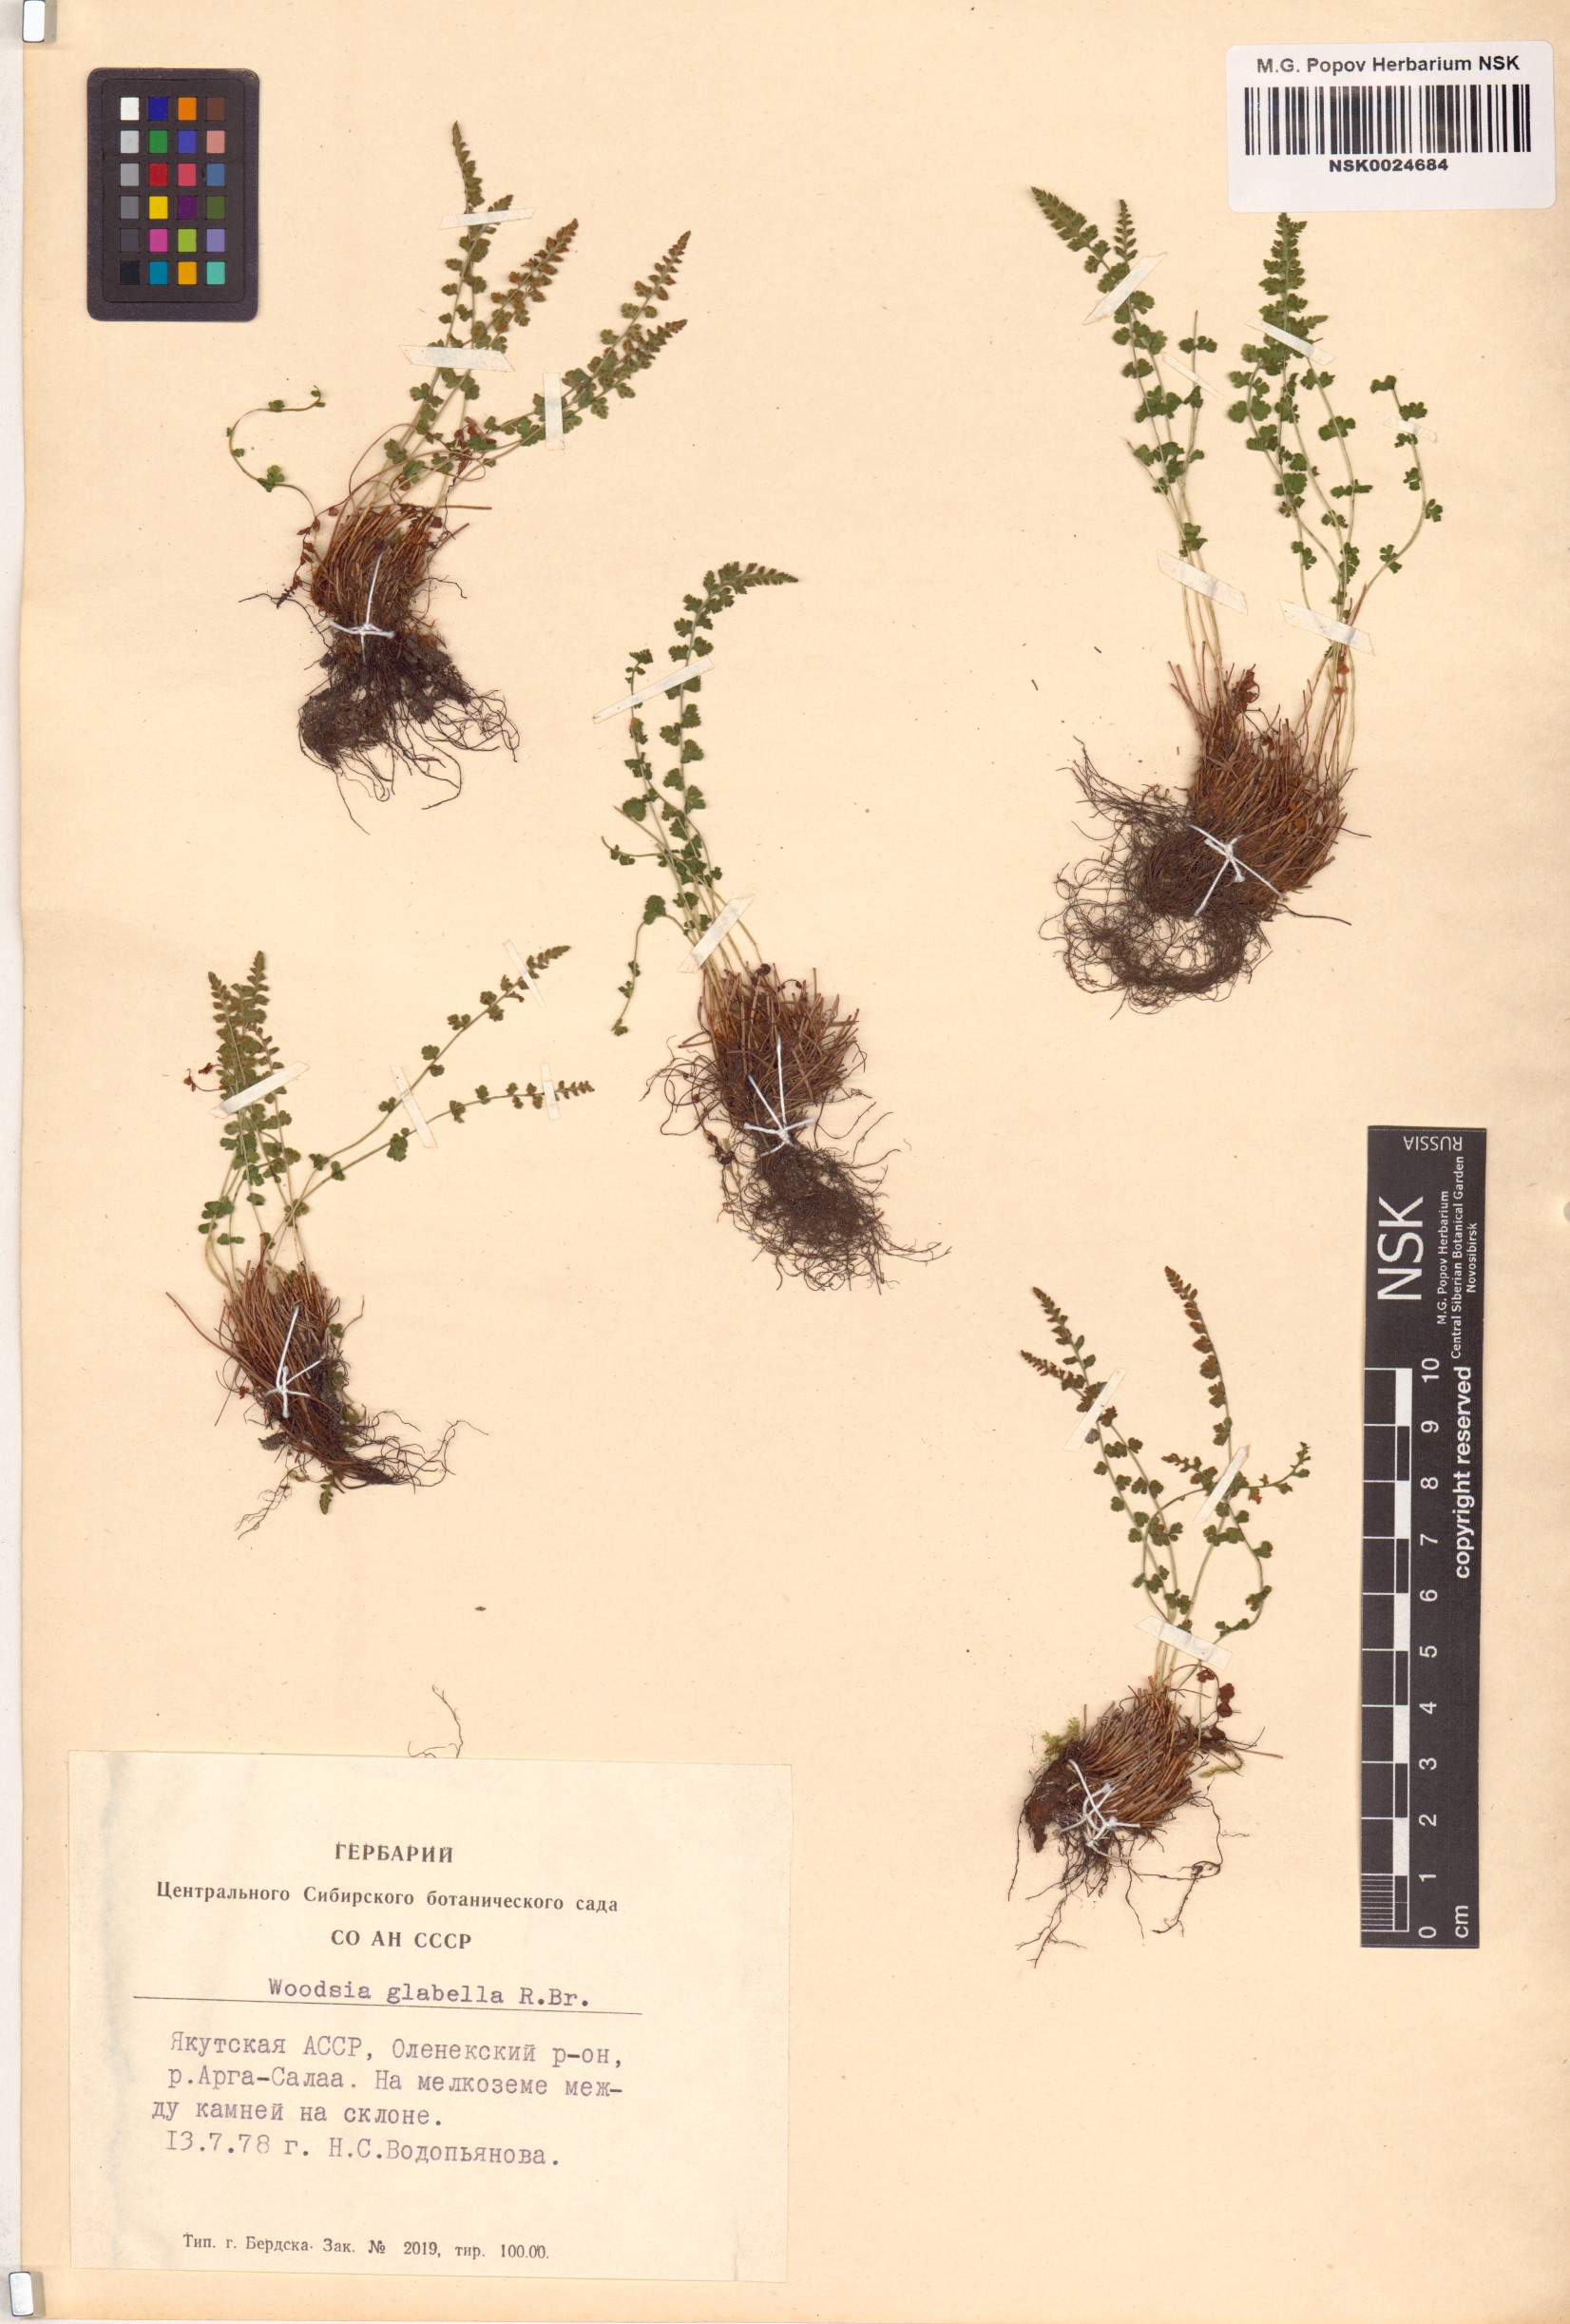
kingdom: Plantae
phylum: Tracheophyta
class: Polypodiopsida
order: Polypodiales
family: Woodsiaceae
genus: Woodsia
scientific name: Woodsia glabella
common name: Smooth woodsia
